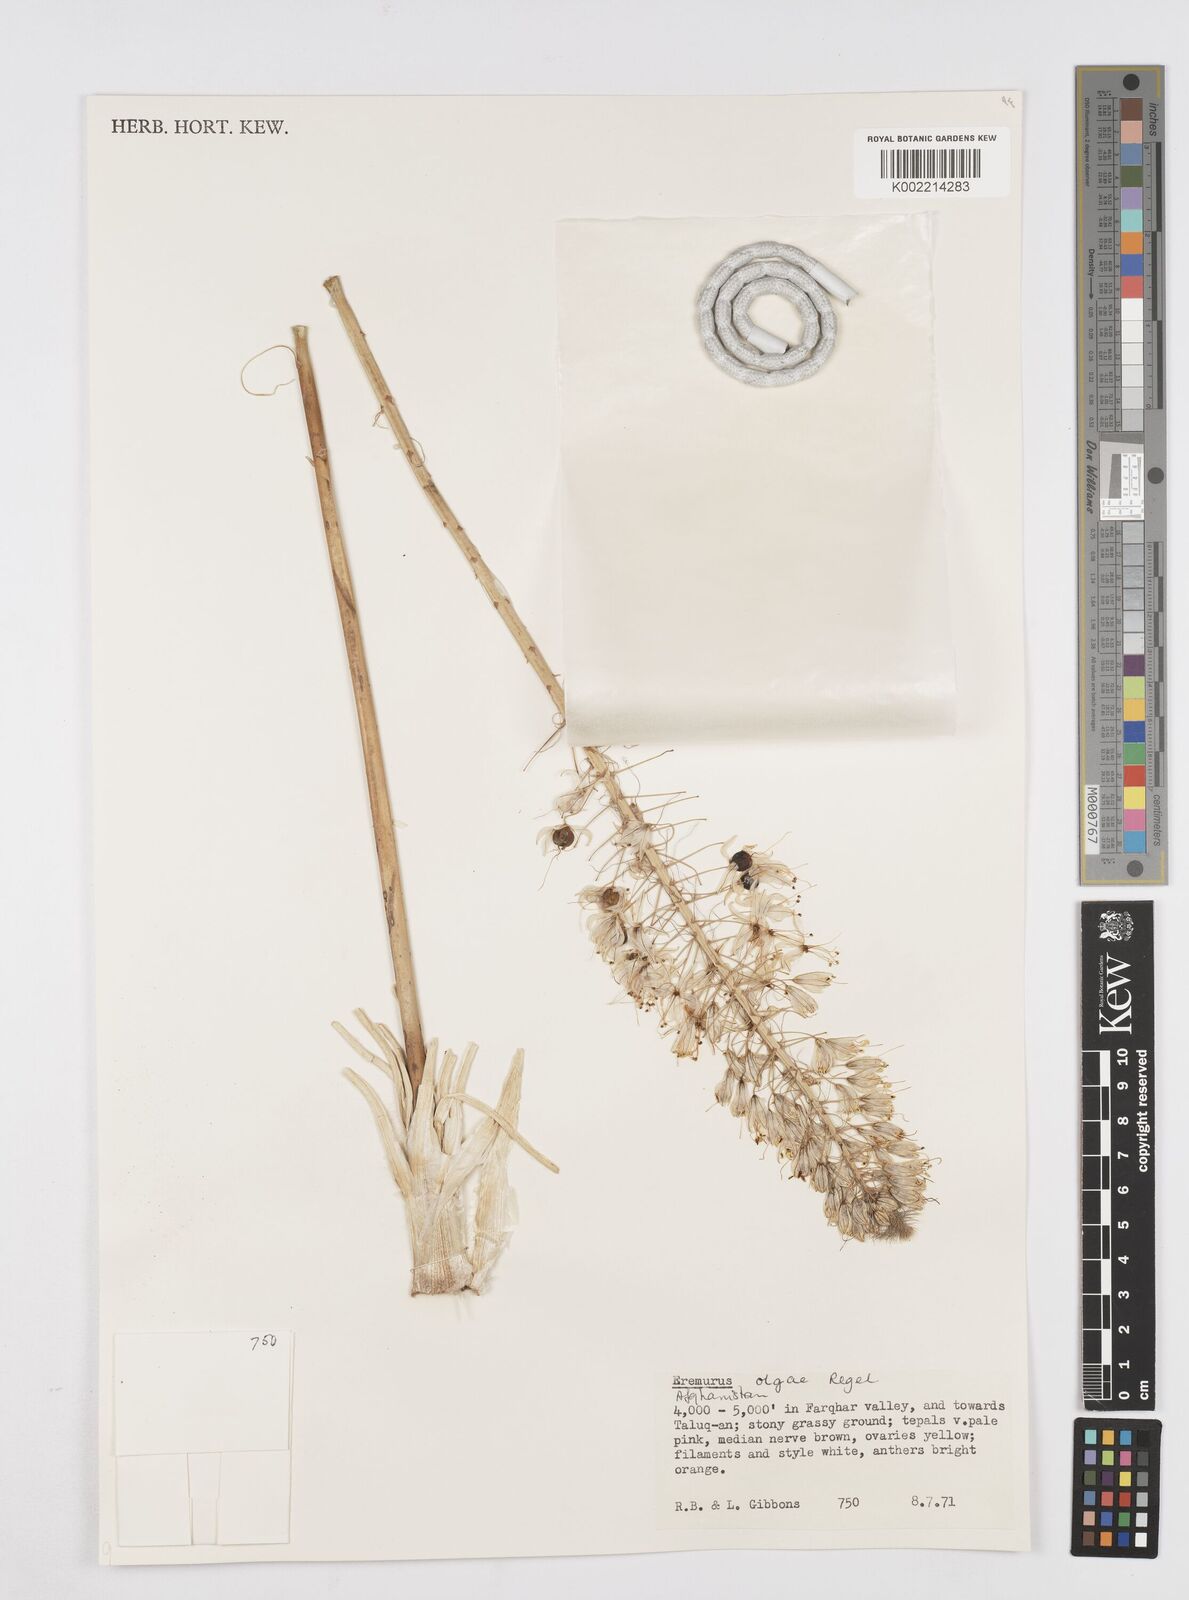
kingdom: Plantae
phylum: Tracheophyta
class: Liliopsida
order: Asparagales
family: Asphodelaceae
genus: Eremurus
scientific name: Eremurus olgae
